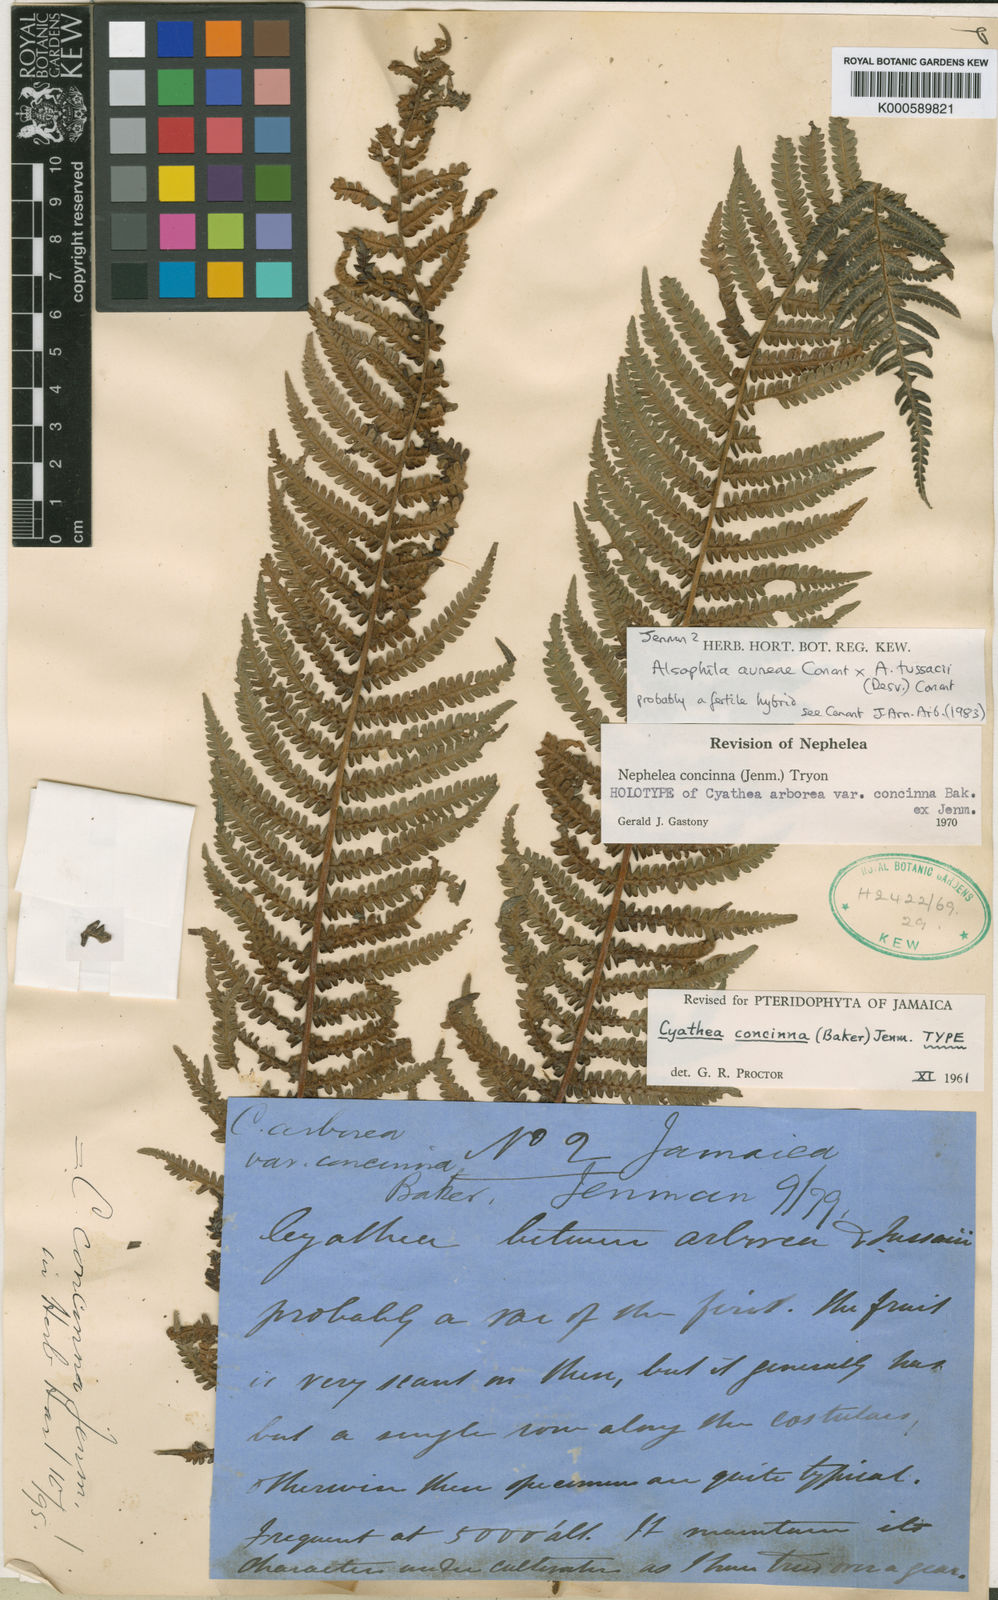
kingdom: Plantae
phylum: Tracheophyta
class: Polypodiopsida
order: Cyatheales
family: Cyatheaceae
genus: Alsophila
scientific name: Alsophila auneae
